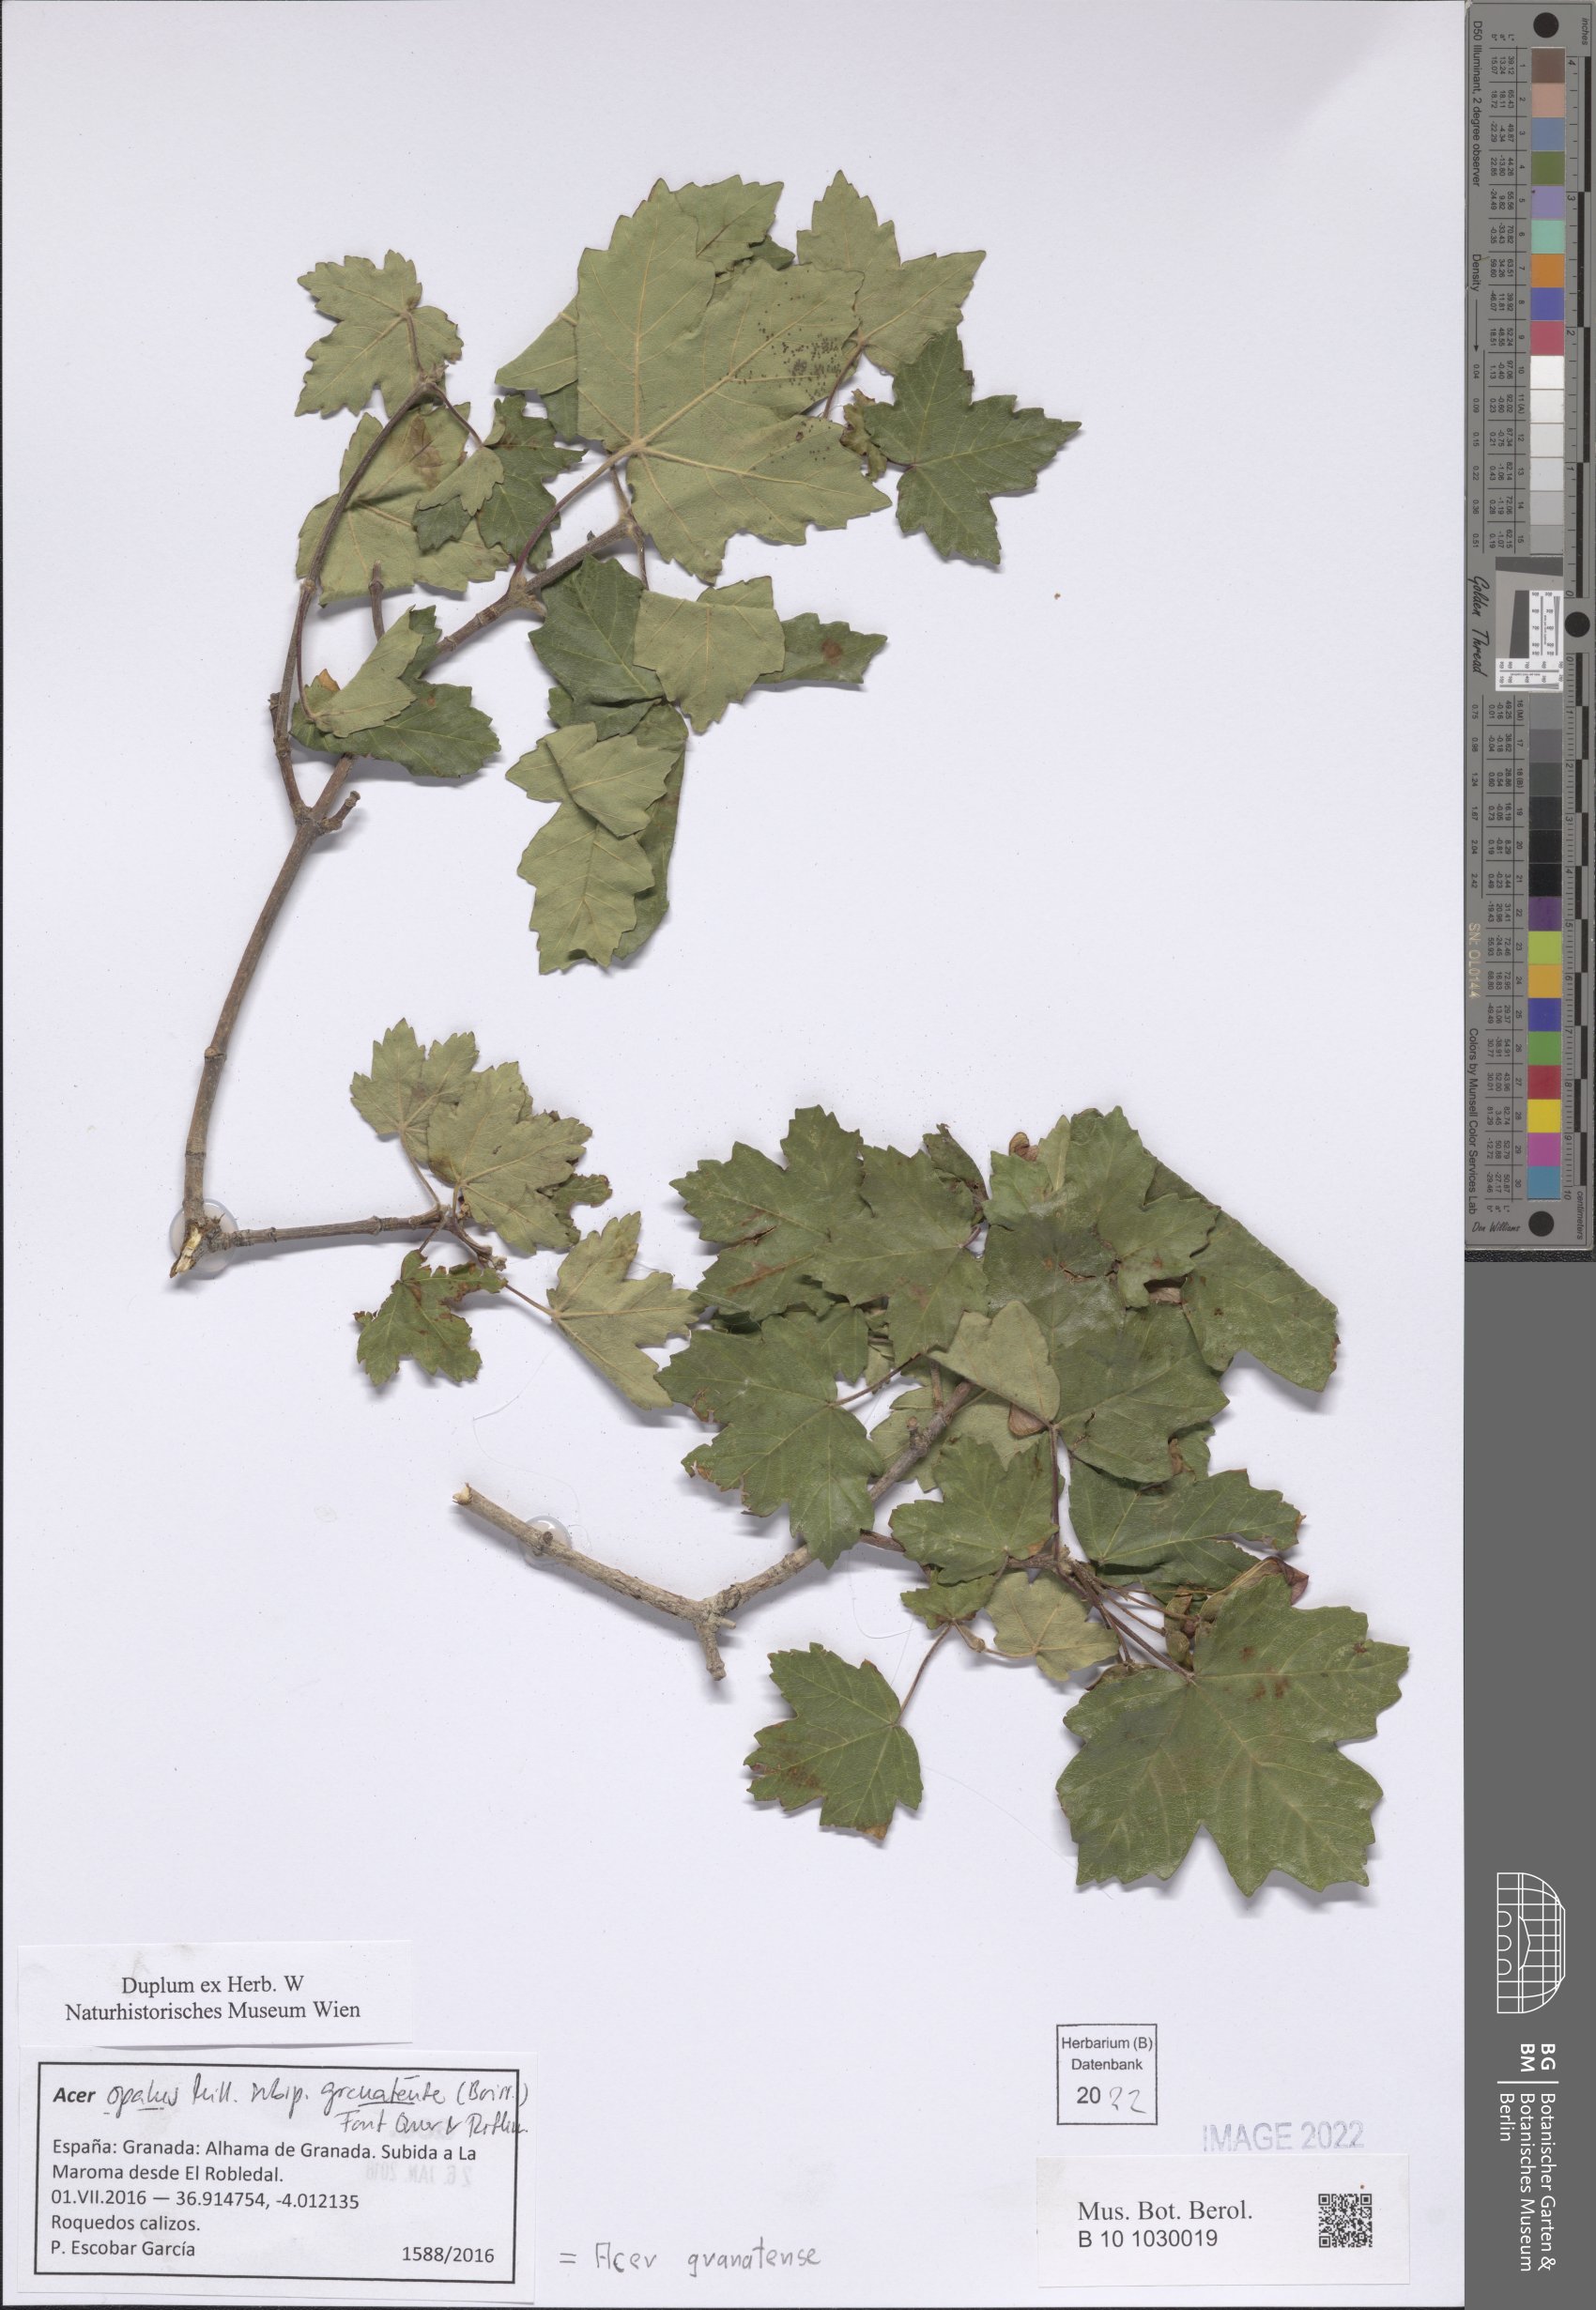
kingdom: Plantae
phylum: Tracheophyta
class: Magnoliopsida
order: Sapindales
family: Sapindaceae
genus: Acer
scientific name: Acer granatense
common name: Spanish maple
